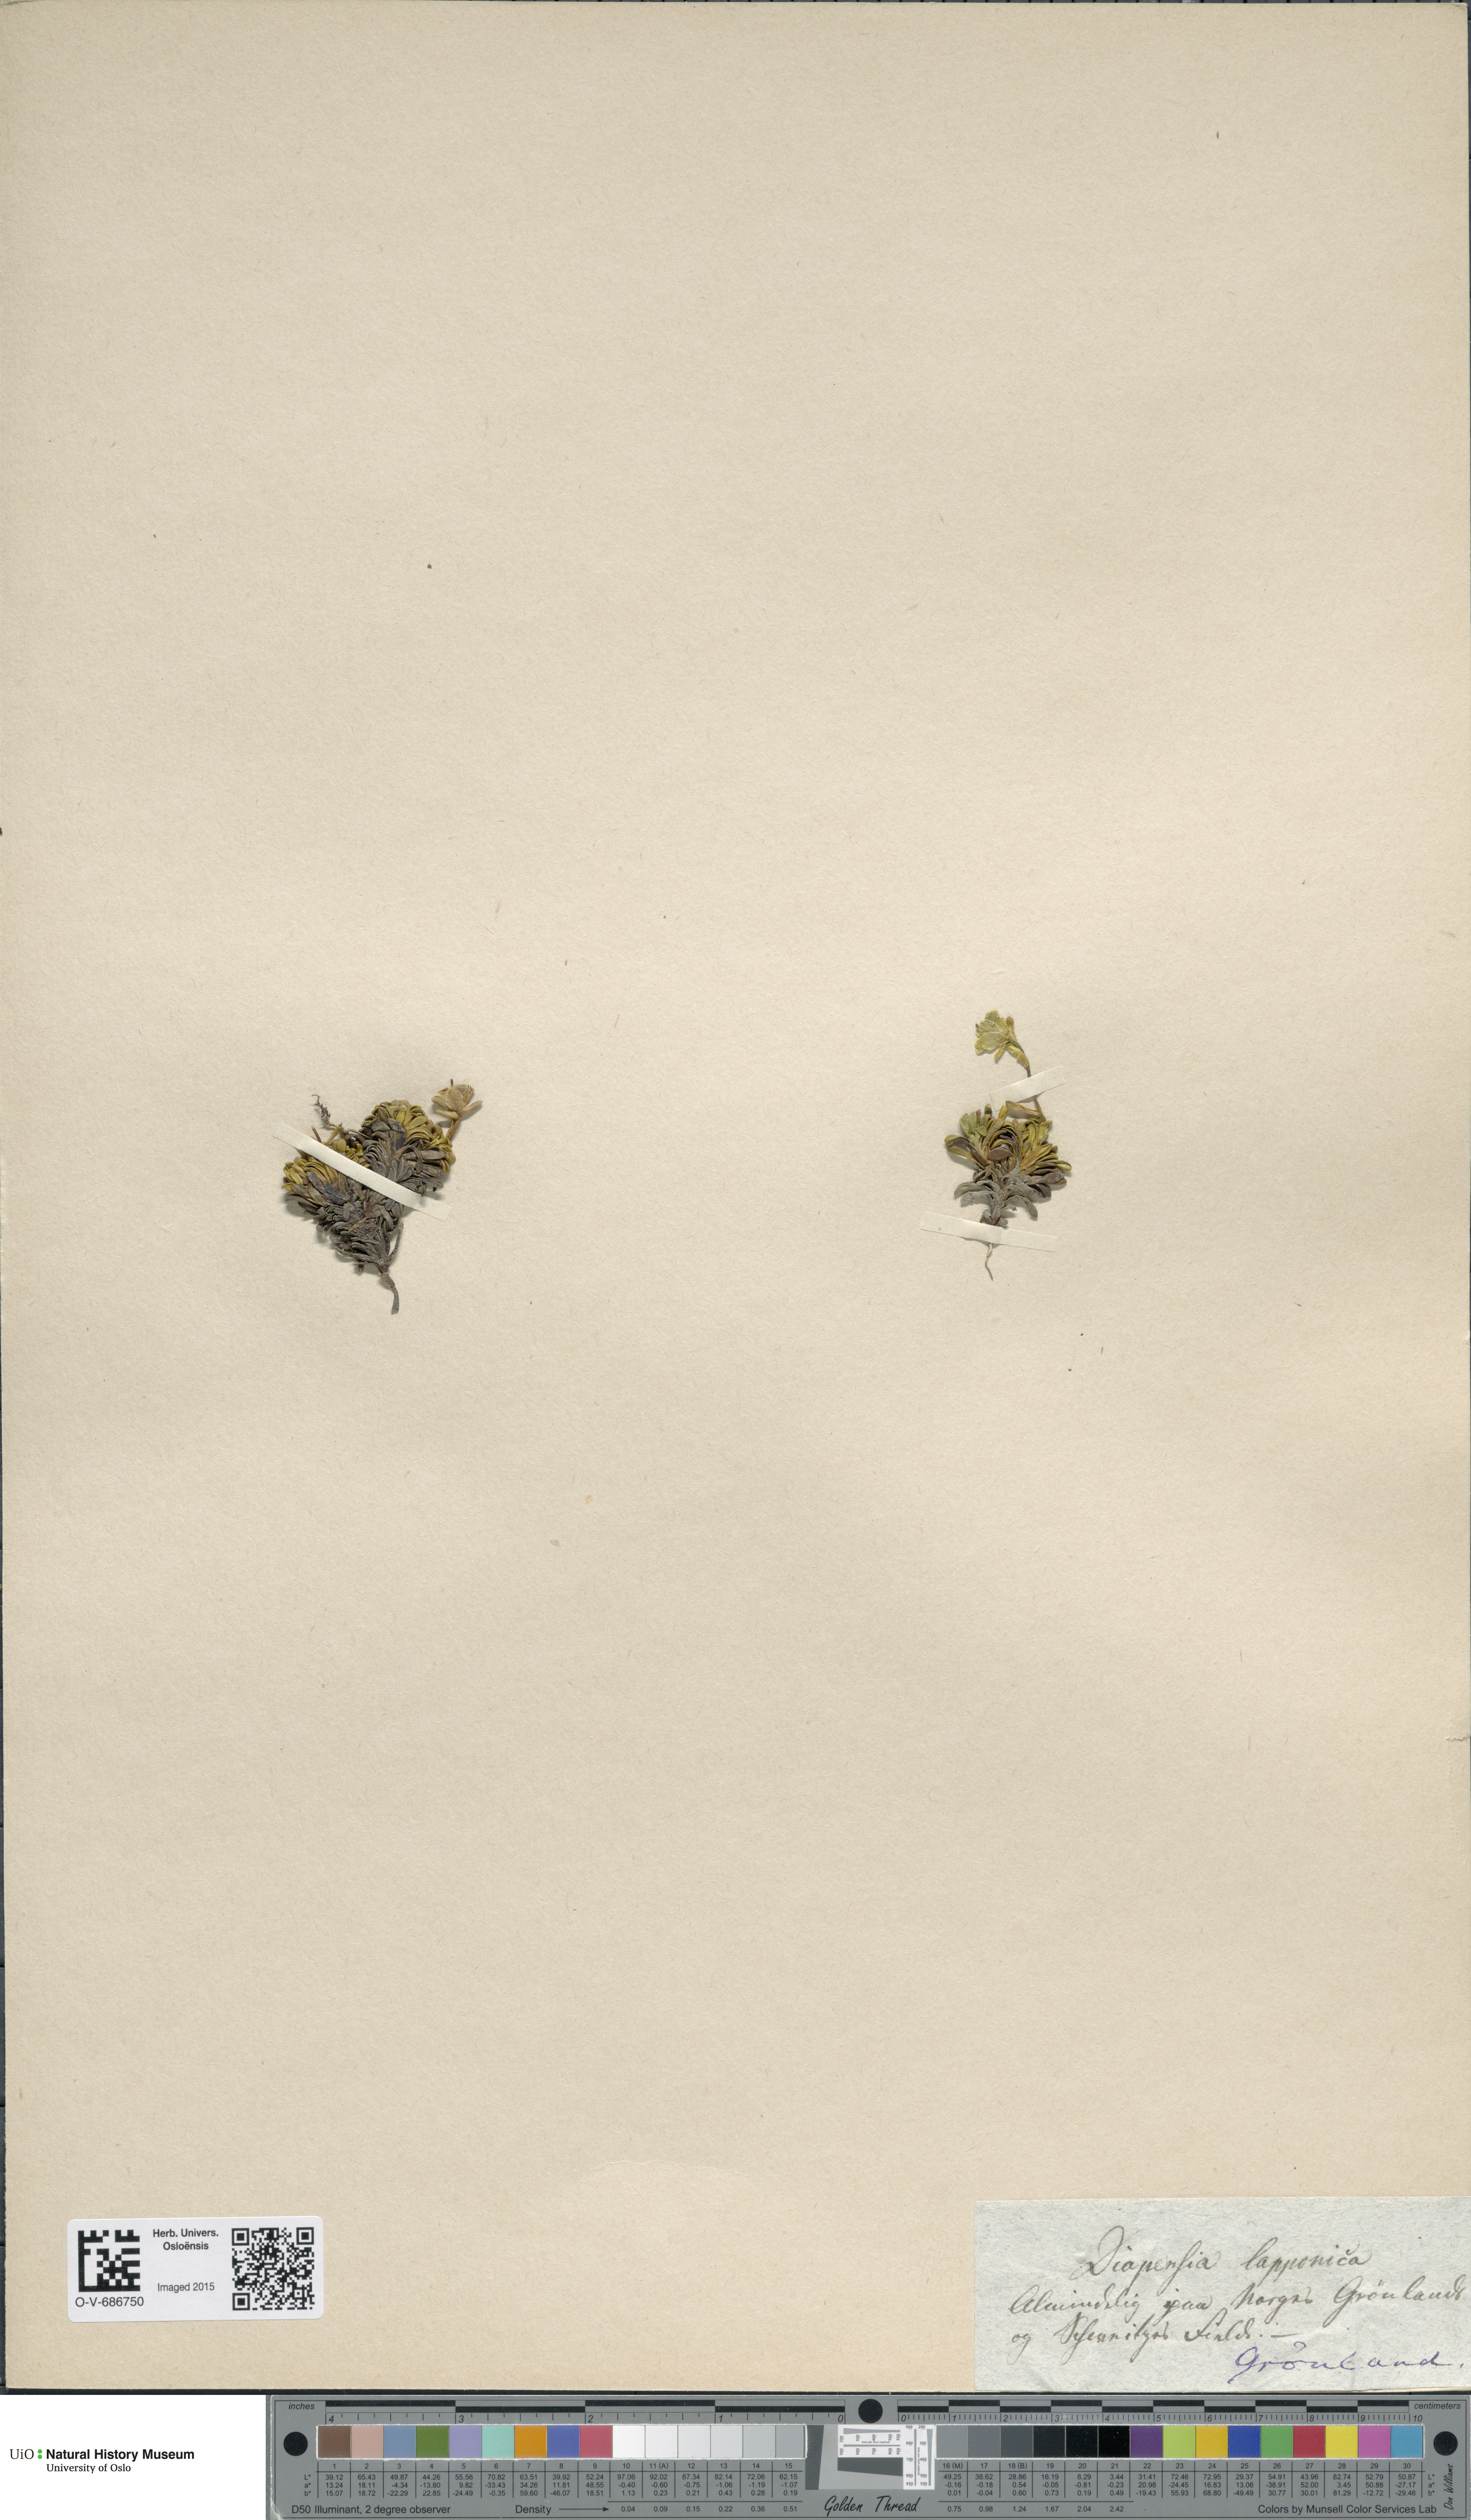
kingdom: Plantae
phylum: Tracheophyta
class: Magnoliopsida
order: Ericales
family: Diapensiaceae
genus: Diapensia
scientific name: Diapensia lapponica
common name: Diapensia
